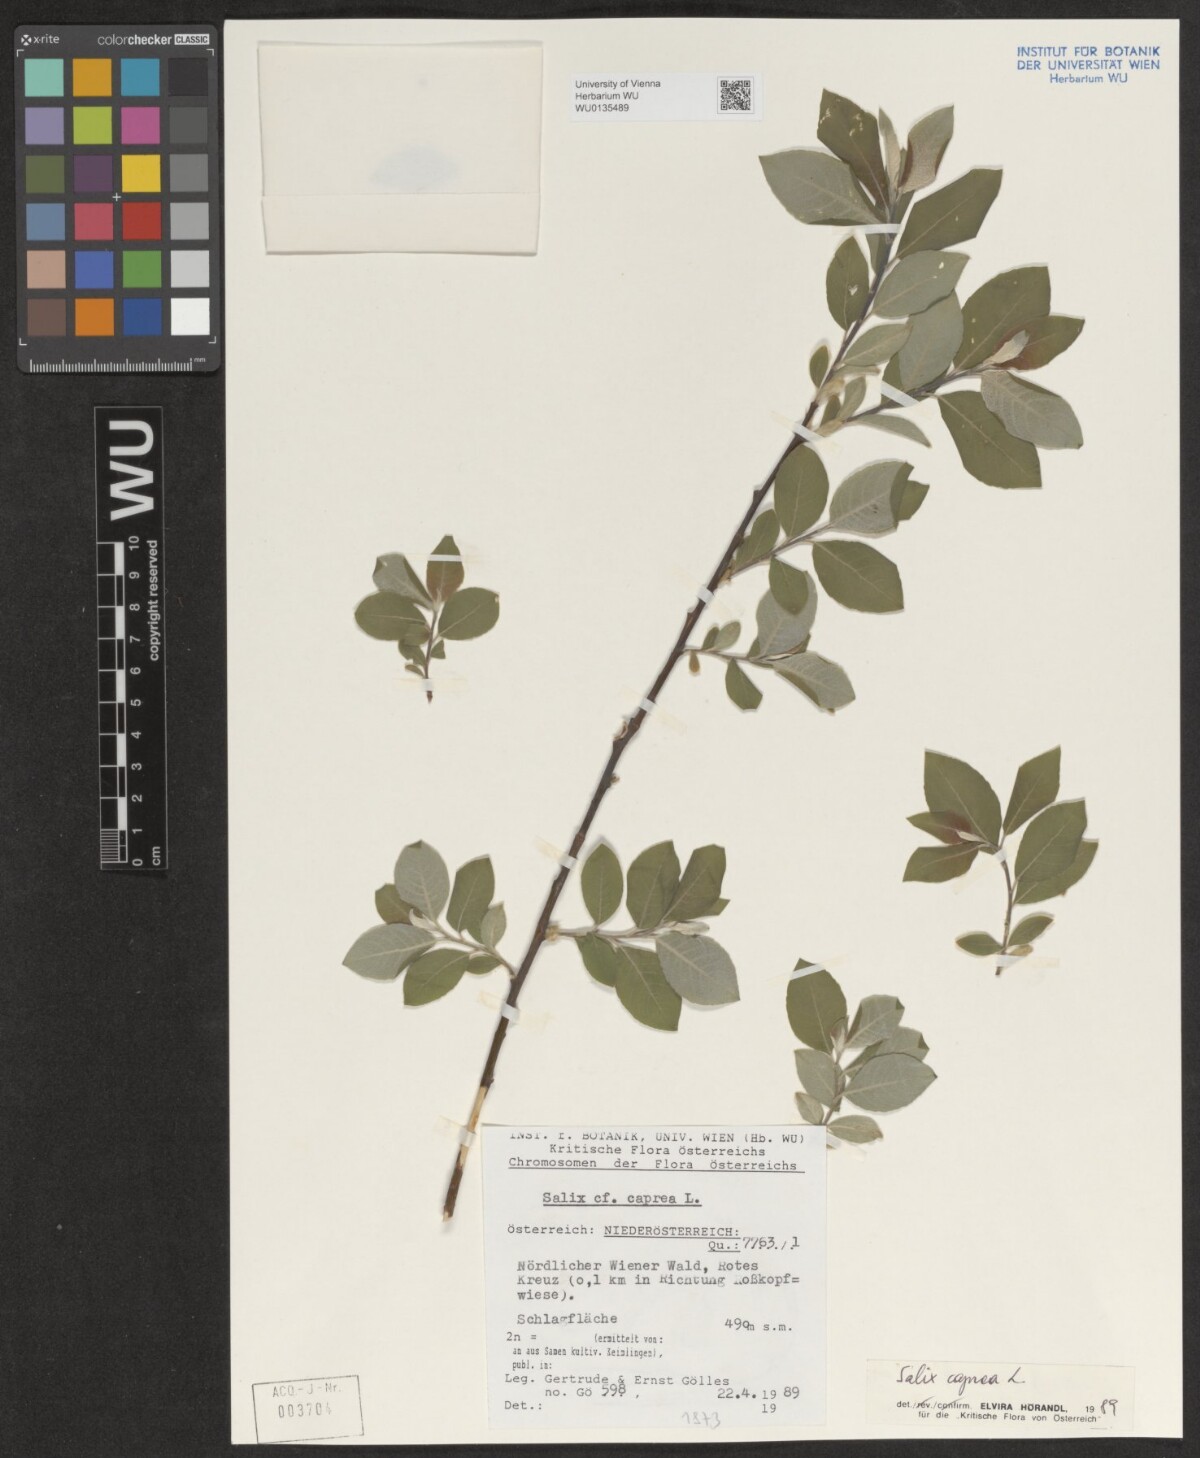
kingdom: Plantae
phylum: Tracheophyta
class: Magnoliopsida
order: Malpighiales
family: Salicaceae
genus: Salix
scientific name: Salix caprea
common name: Goat willow
